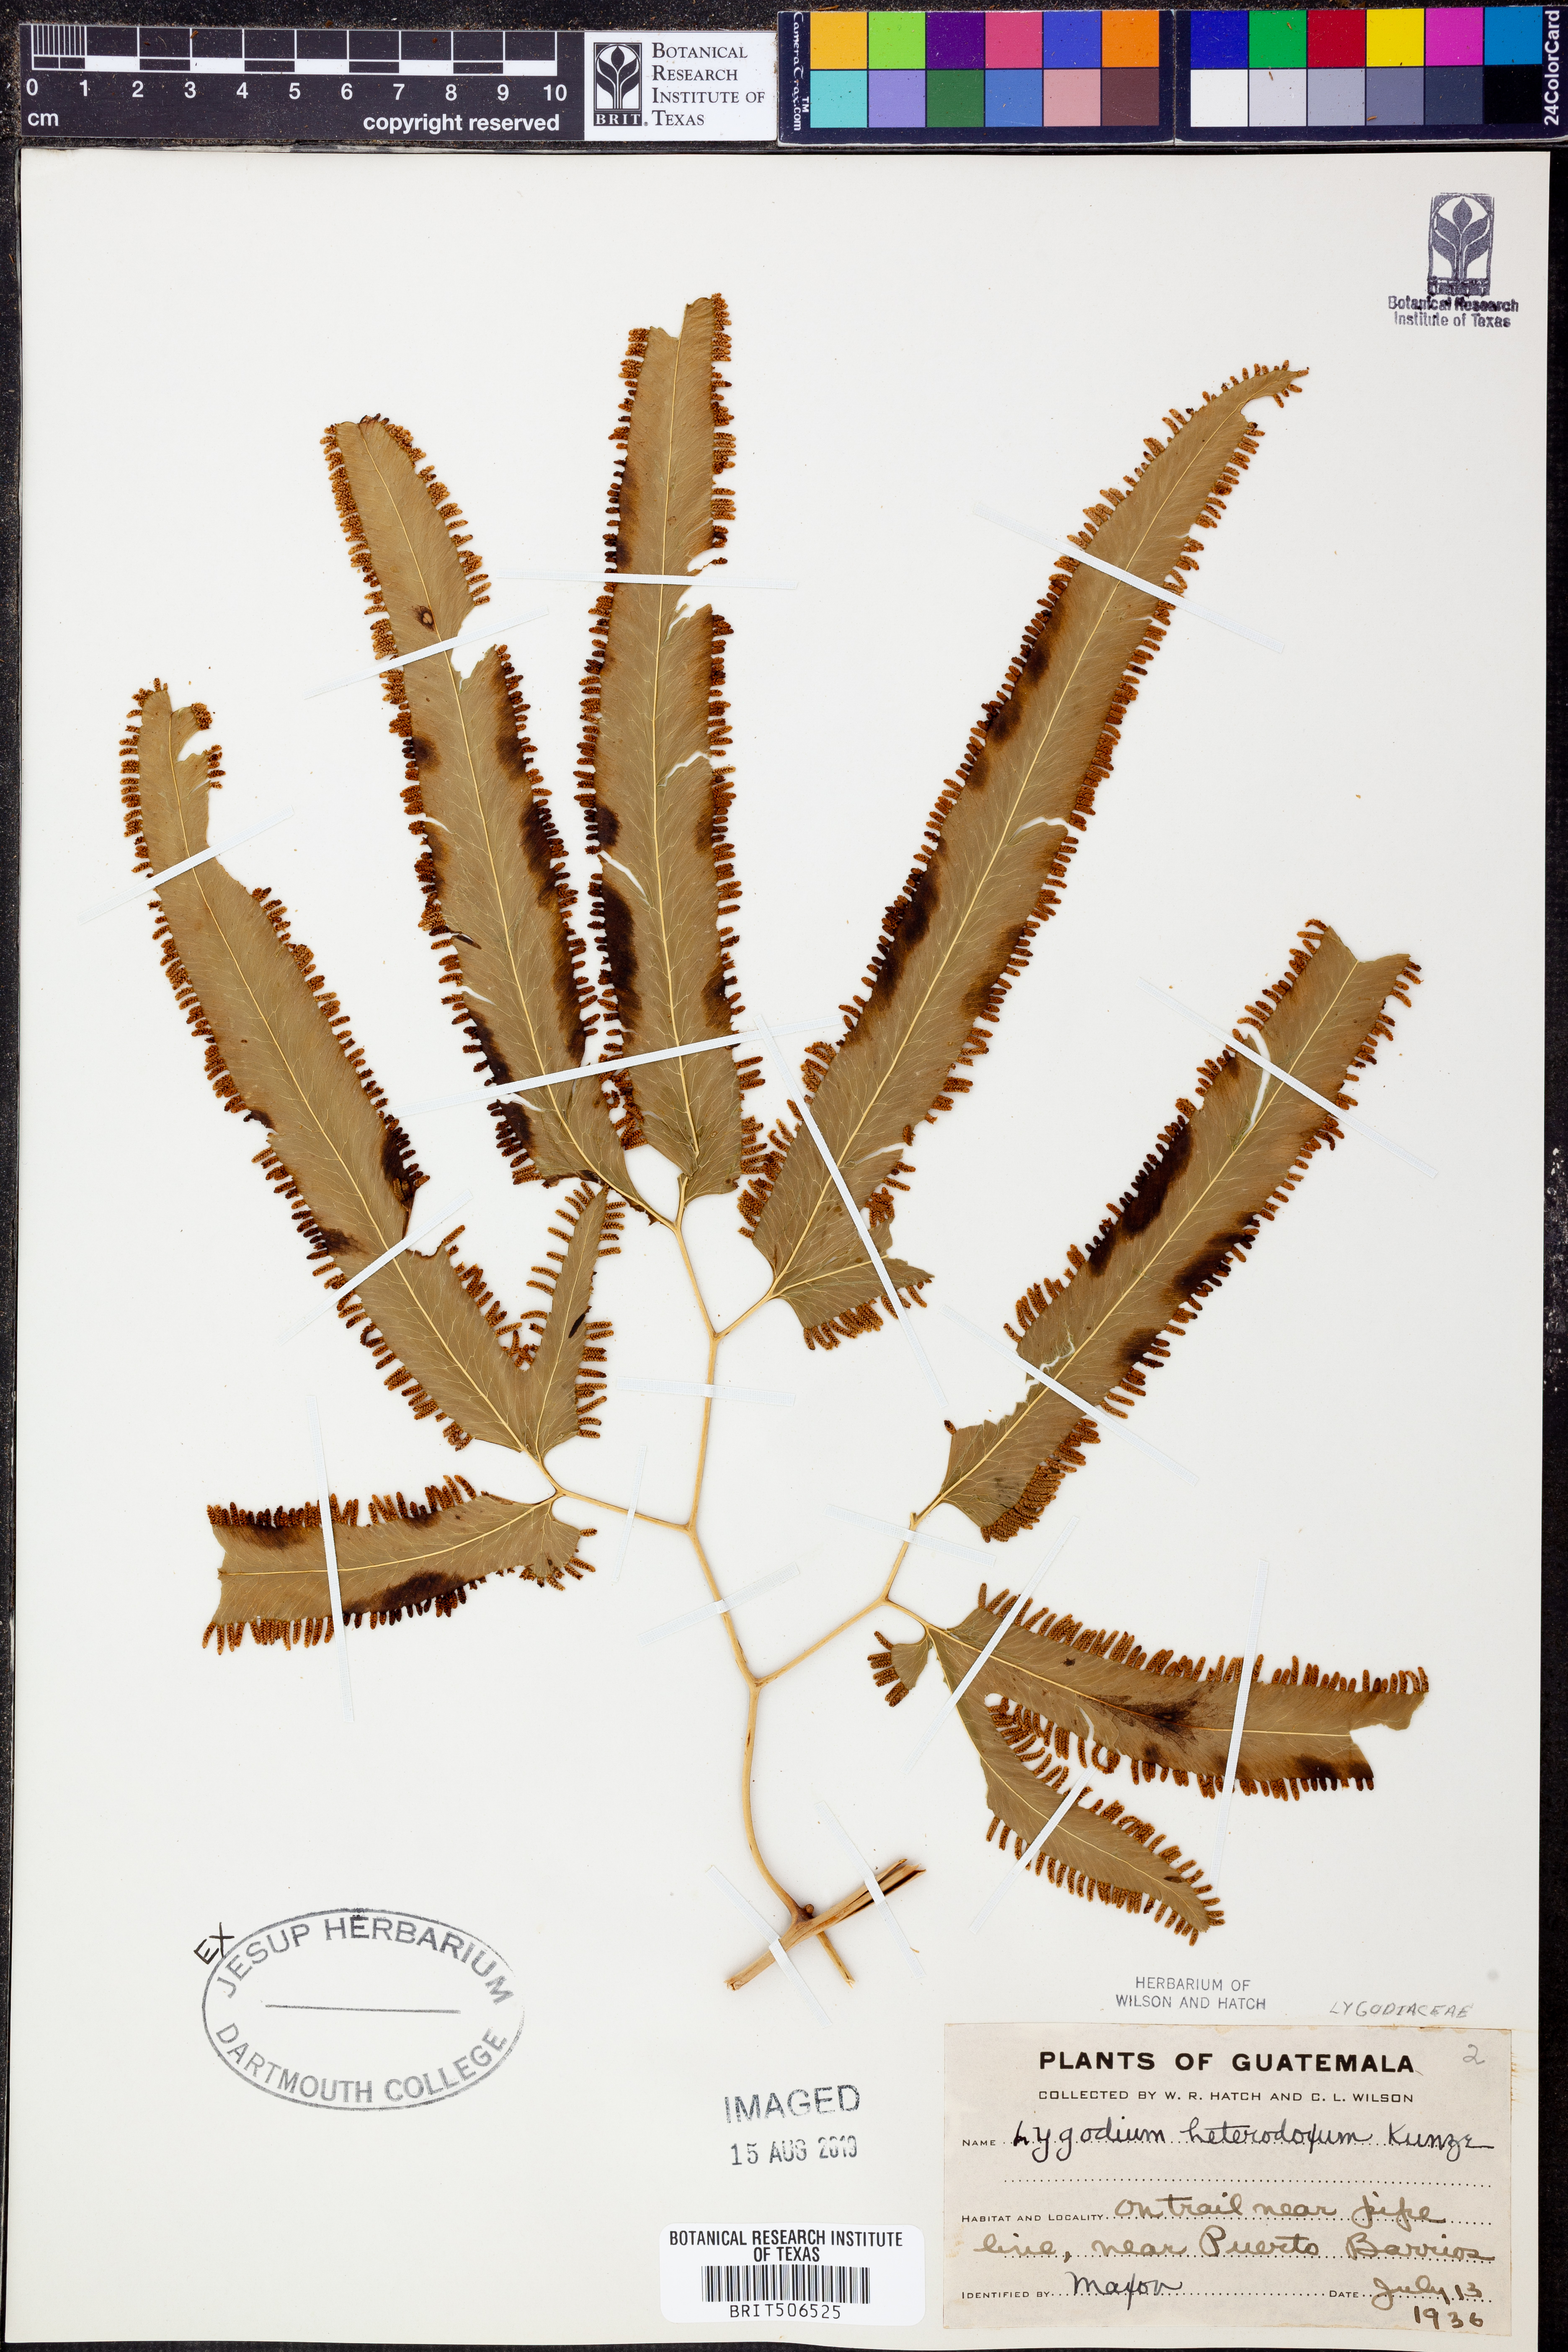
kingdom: Plantae
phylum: Tracheophyta
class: Polypodiopsida
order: Schizaeales
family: Lygodiaceae
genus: Lygodium
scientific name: Lygodium heterodoxum
